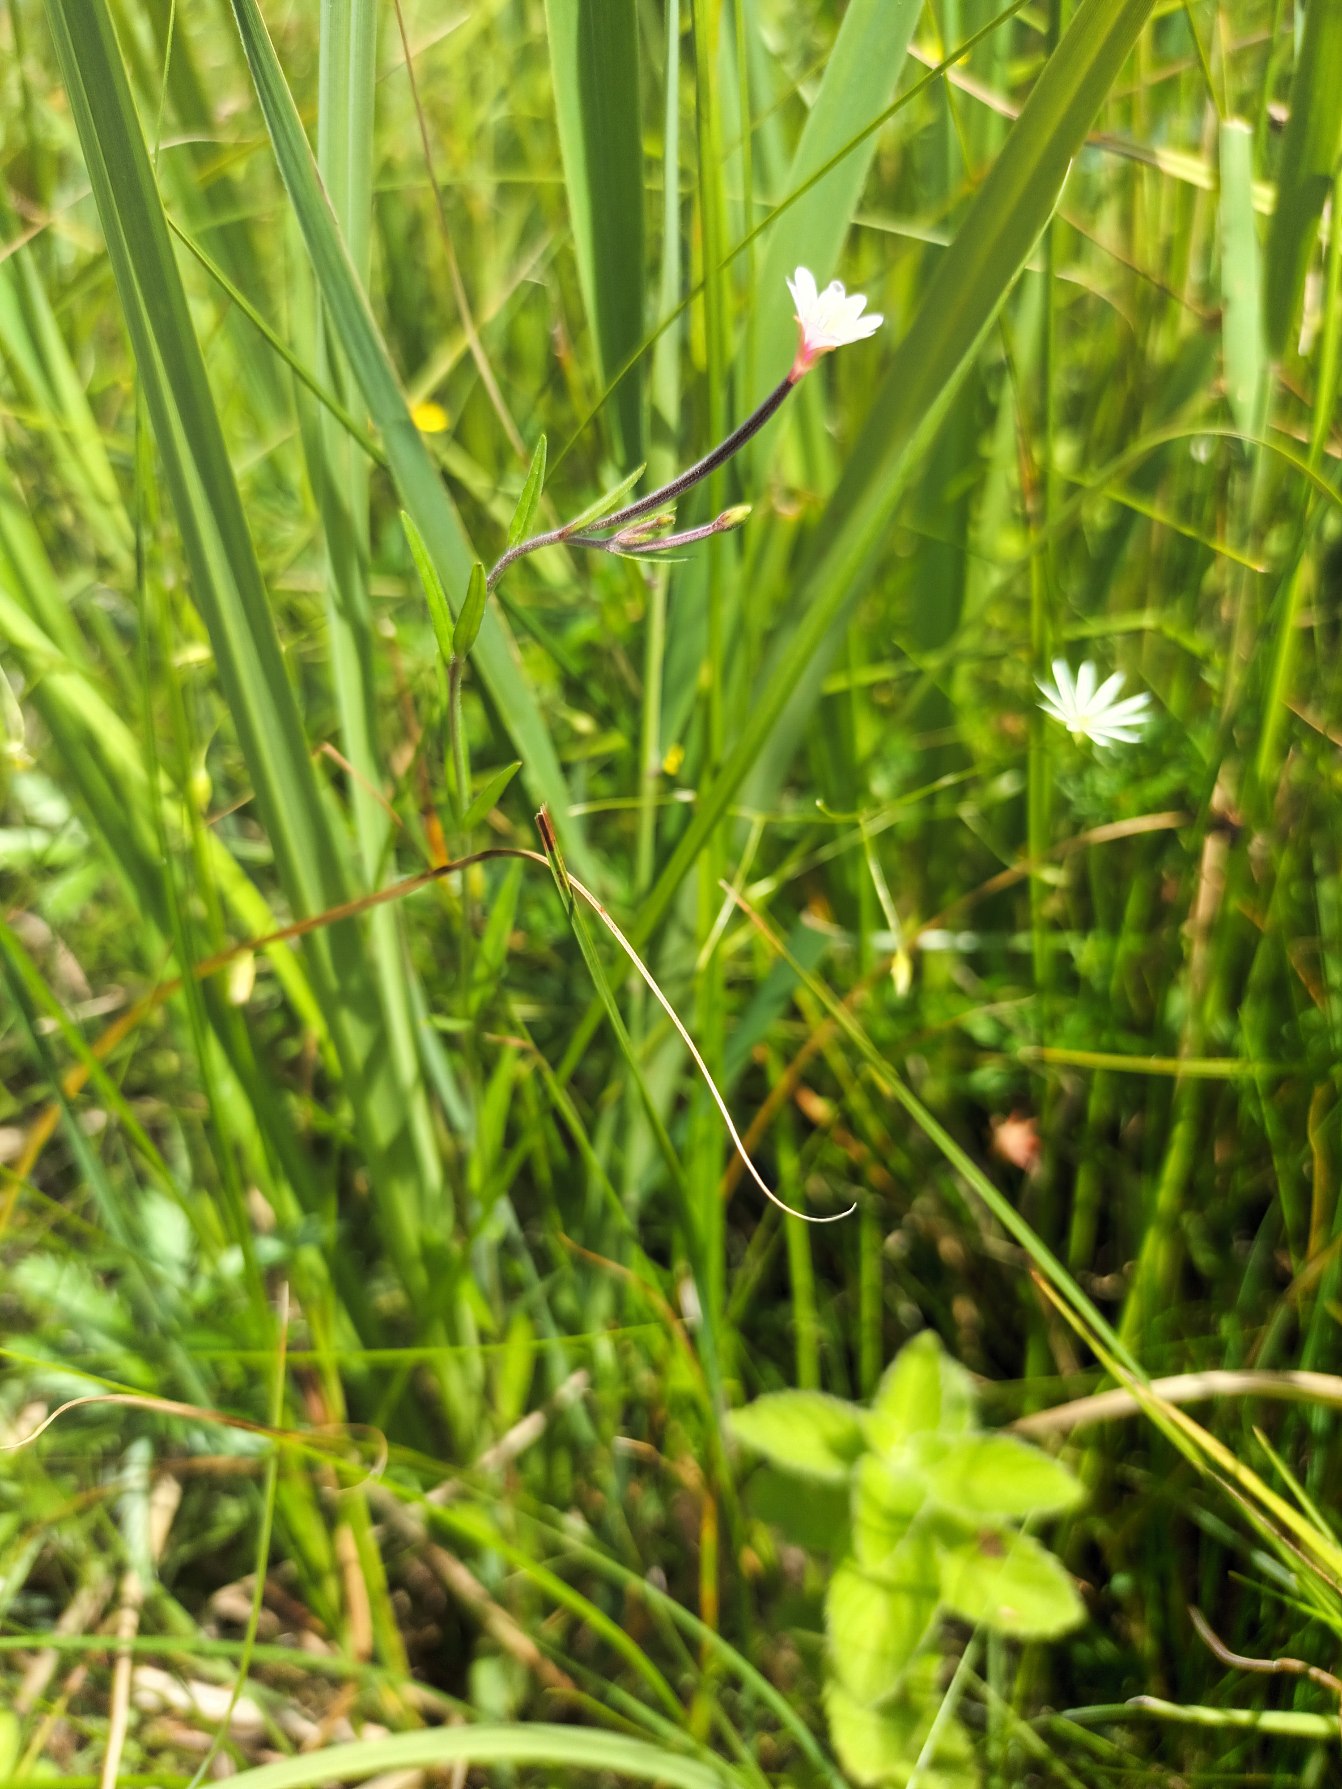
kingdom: Plantae
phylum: Tracheophyta
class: Magnoliopsida
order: Myrtales
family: Onagraceae
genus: Epilobium
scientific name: Epilobium palustre
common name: Kær-dueurt
